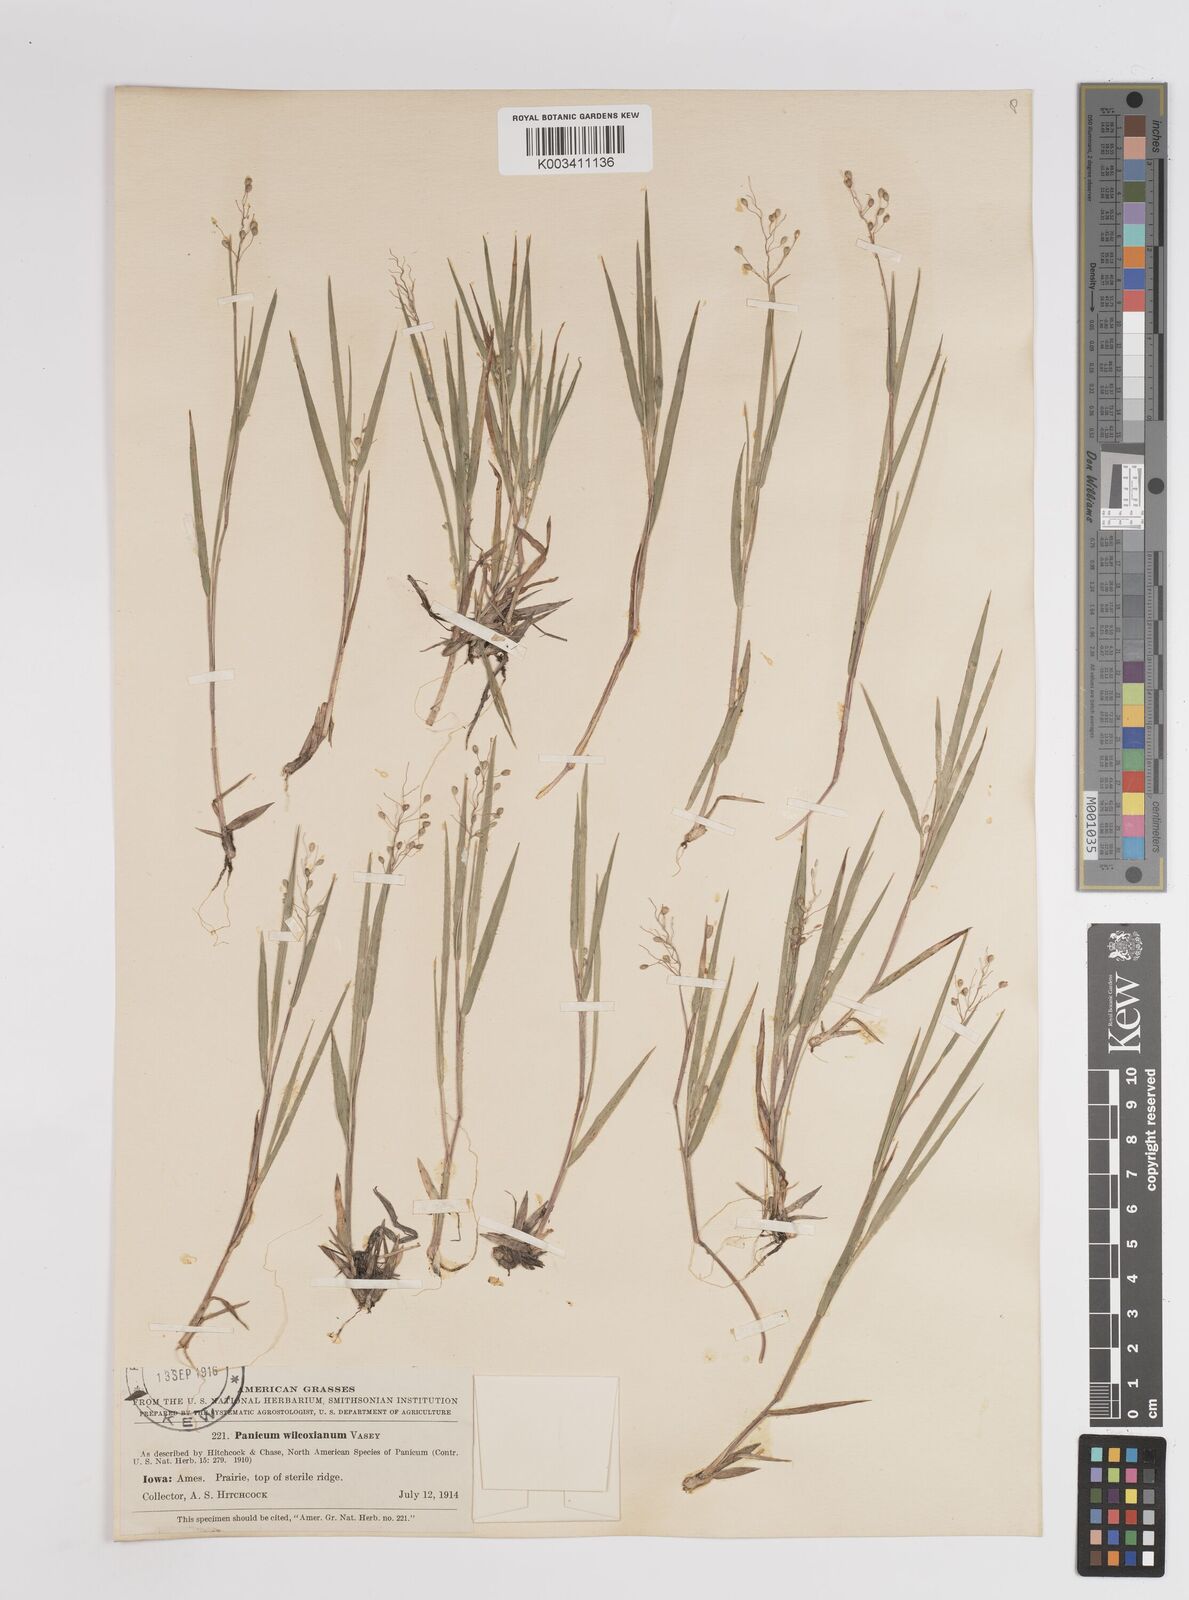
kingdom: Plantae
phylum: Tracheophyta
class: Liliopsida
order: Poales
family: Poaceae
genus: Dichanthelium
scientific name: Dichanthelium wilcoxianum
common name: Wilcox's panicgrass
